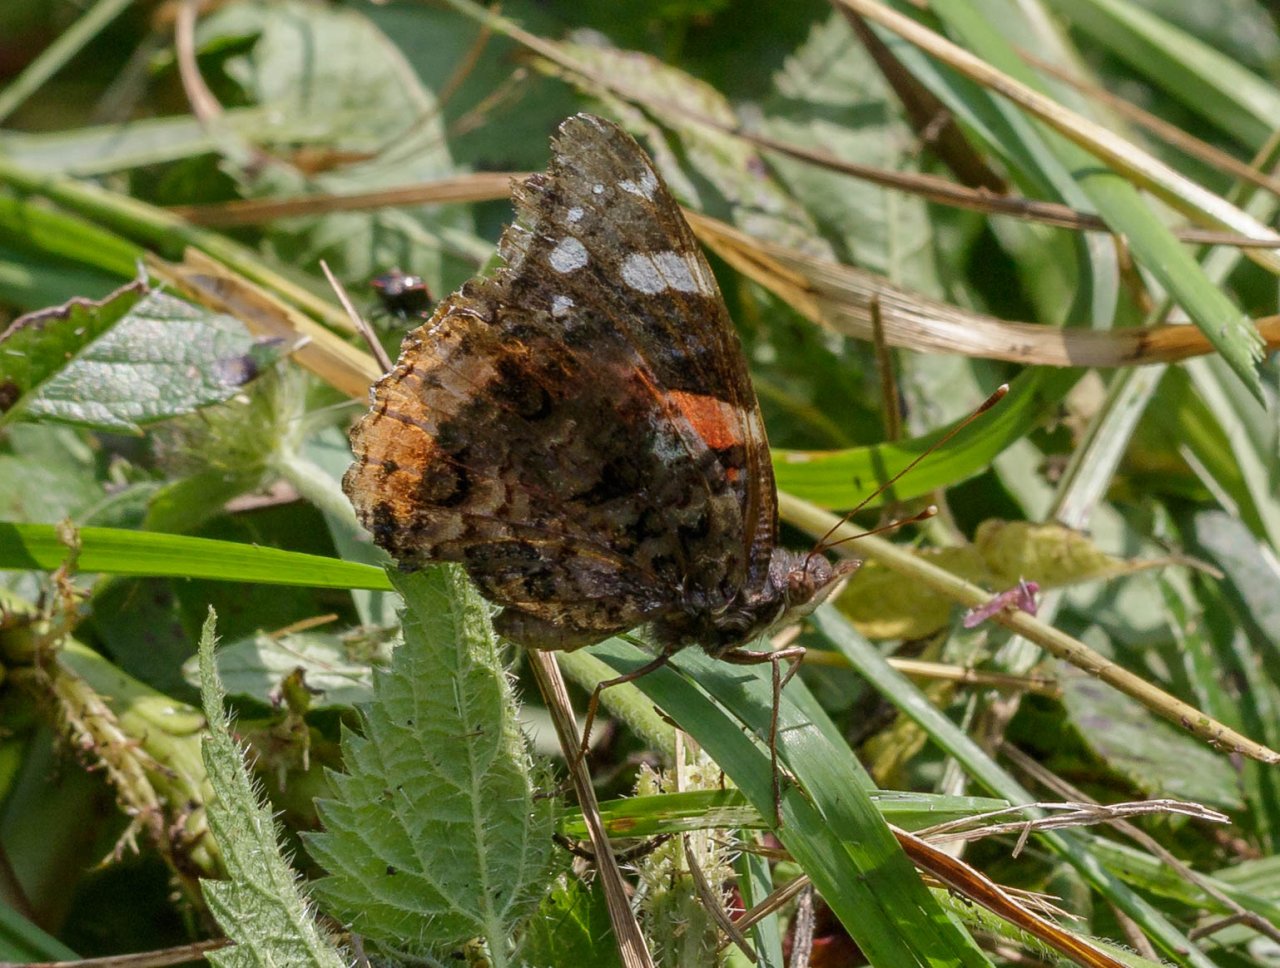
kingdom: Animalia
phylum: Arthropoda
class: Insecta
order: Lepidoptera
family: Nymphalidae
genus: Vanessa
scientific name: Vanessa atalanta
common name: Red Admiral
